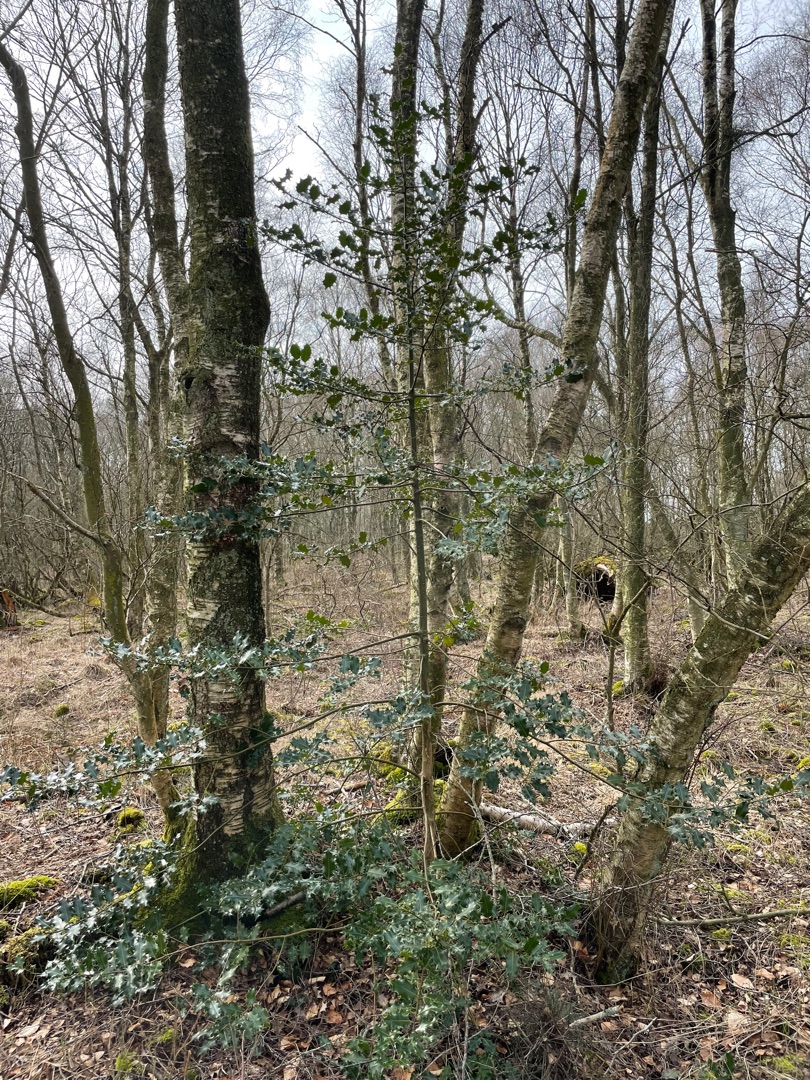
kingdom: Plantae
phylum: Tracheophyta
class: Magnoliopsida
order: Aquifoliales
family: Aquifoliaceae
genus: Ilex
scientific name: Ilex aquifolium
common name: Kristtorn
